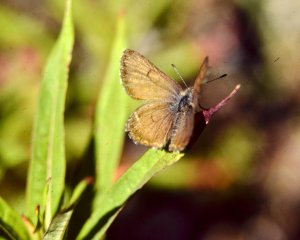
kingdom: Animalia
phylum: Arthropoda
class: Insecta
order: Lepidoptera
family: Lycaenidae
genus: Lycaena
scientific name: Lycaena mariposa
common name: Mariposa Copper
